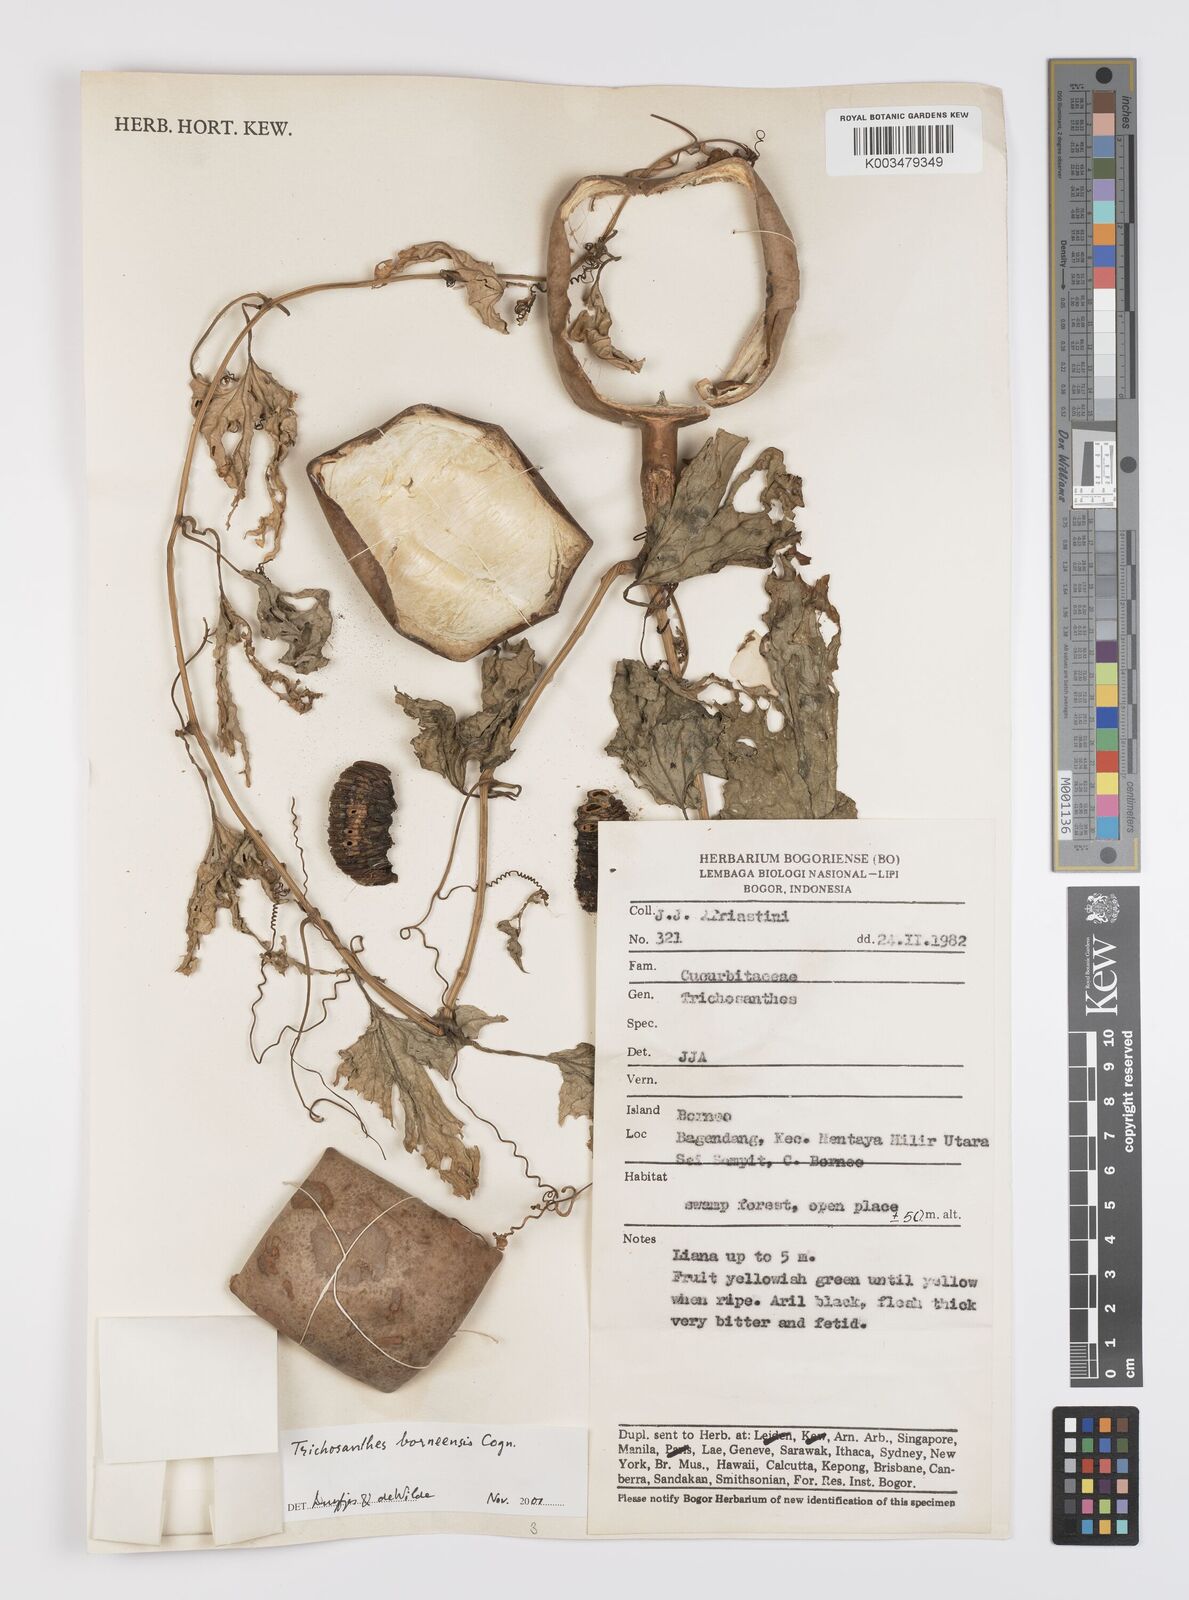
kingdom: Plantae
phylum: Tracheophyta
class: Magnoliopsida
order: Cucurbitales
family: Cucurbitaceae
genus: Trichosanthes
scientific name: Trichosanthes borneensis
